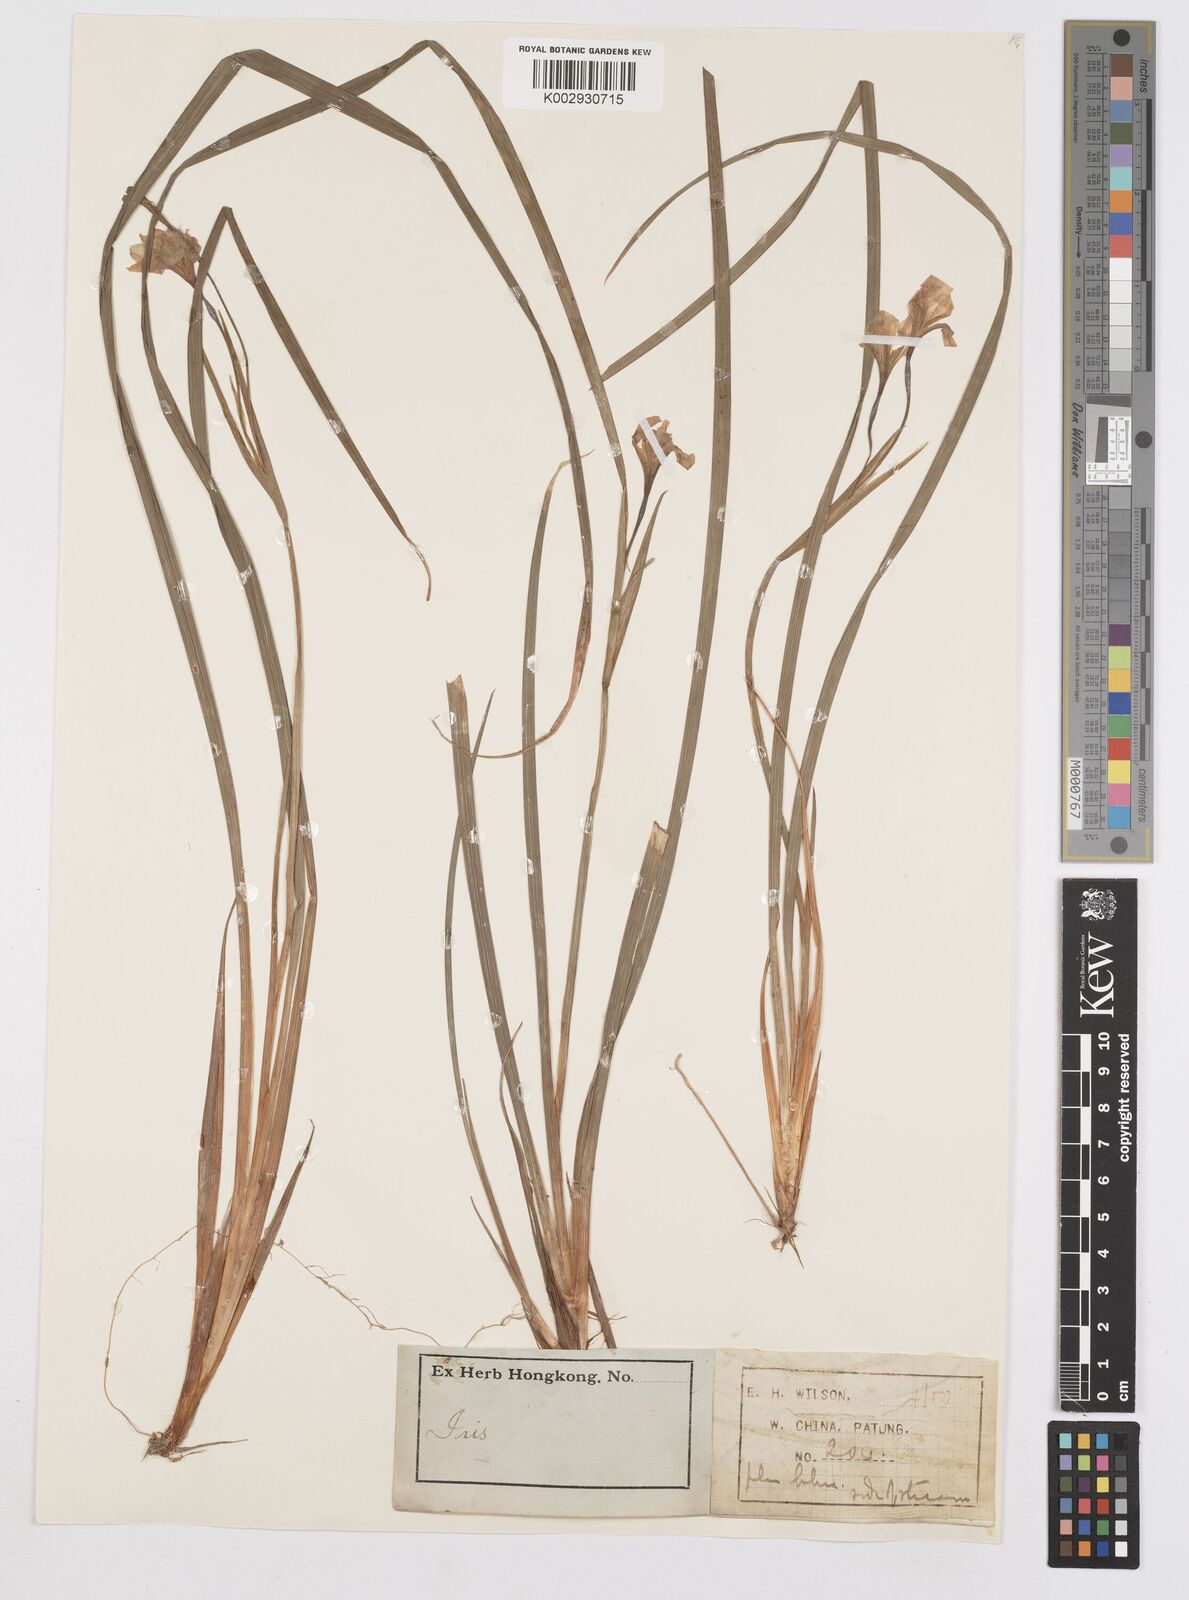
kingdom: Plantae
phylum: Tracheophyta
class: Liliopsida
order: Asparagales
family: Iridaceae
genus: Iris
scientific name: Iris henryi
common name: Long-pedicel iris
